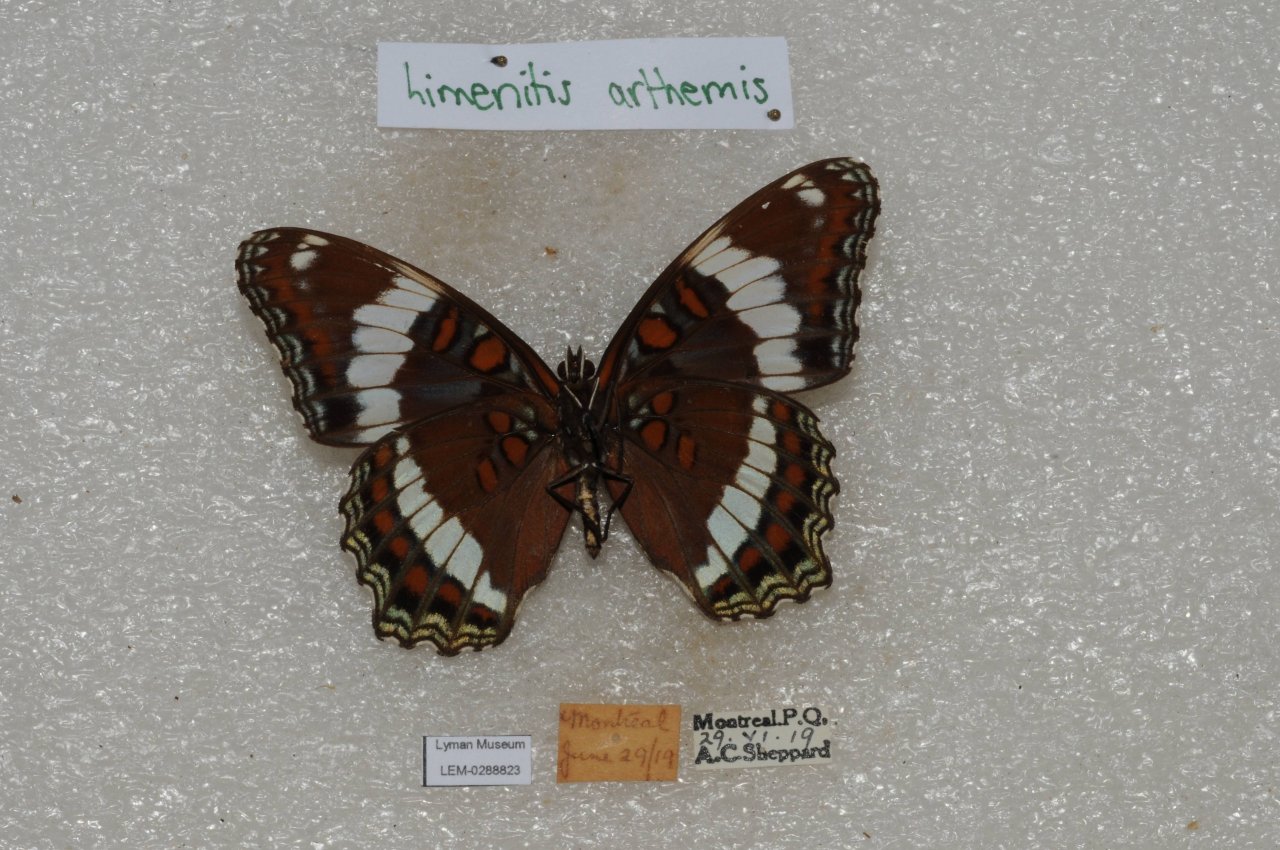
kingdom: Animalia
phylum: Arthropoda
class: Insecta
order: Lepidoptera
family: Nymphalidae
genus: Limenitis
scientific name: Limenitis arthemis
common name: Red-spotted Admiral
